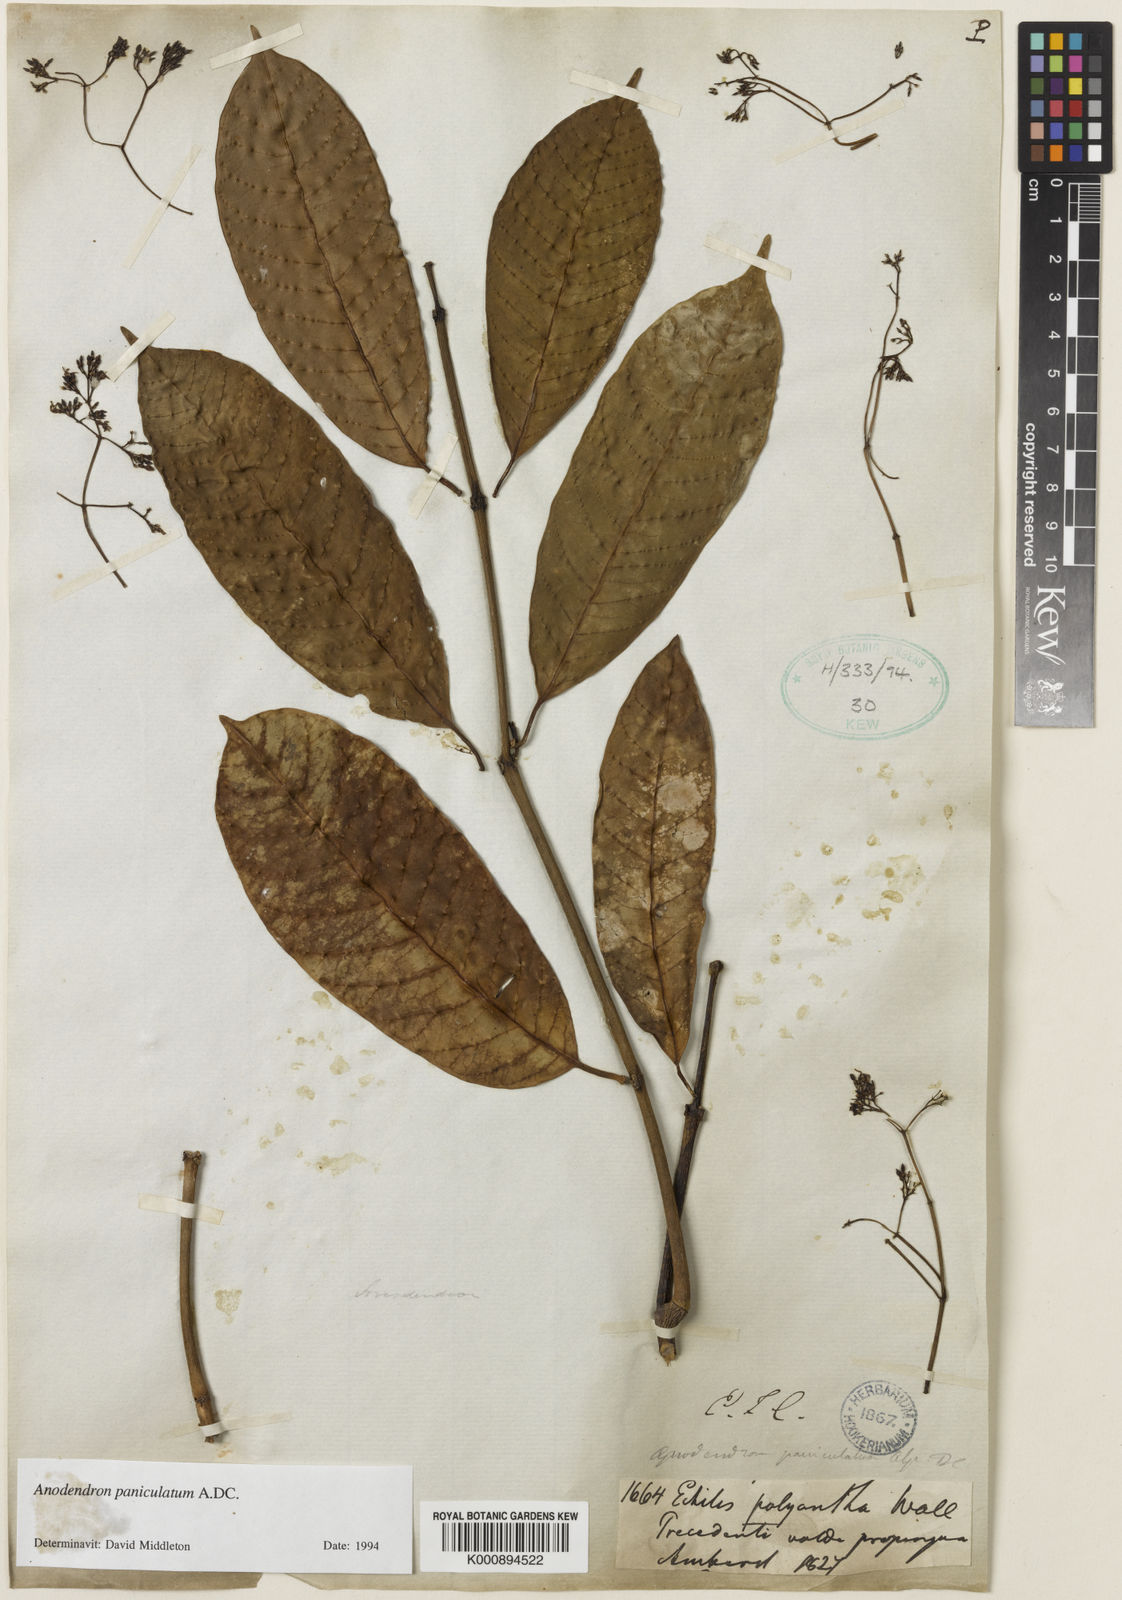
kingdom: Plantae
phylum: Tracheophyta
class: Magnoliopsida
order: Gentianales
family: Apocynaceae
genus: Anodendron
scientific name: Anodendron parviflorum
